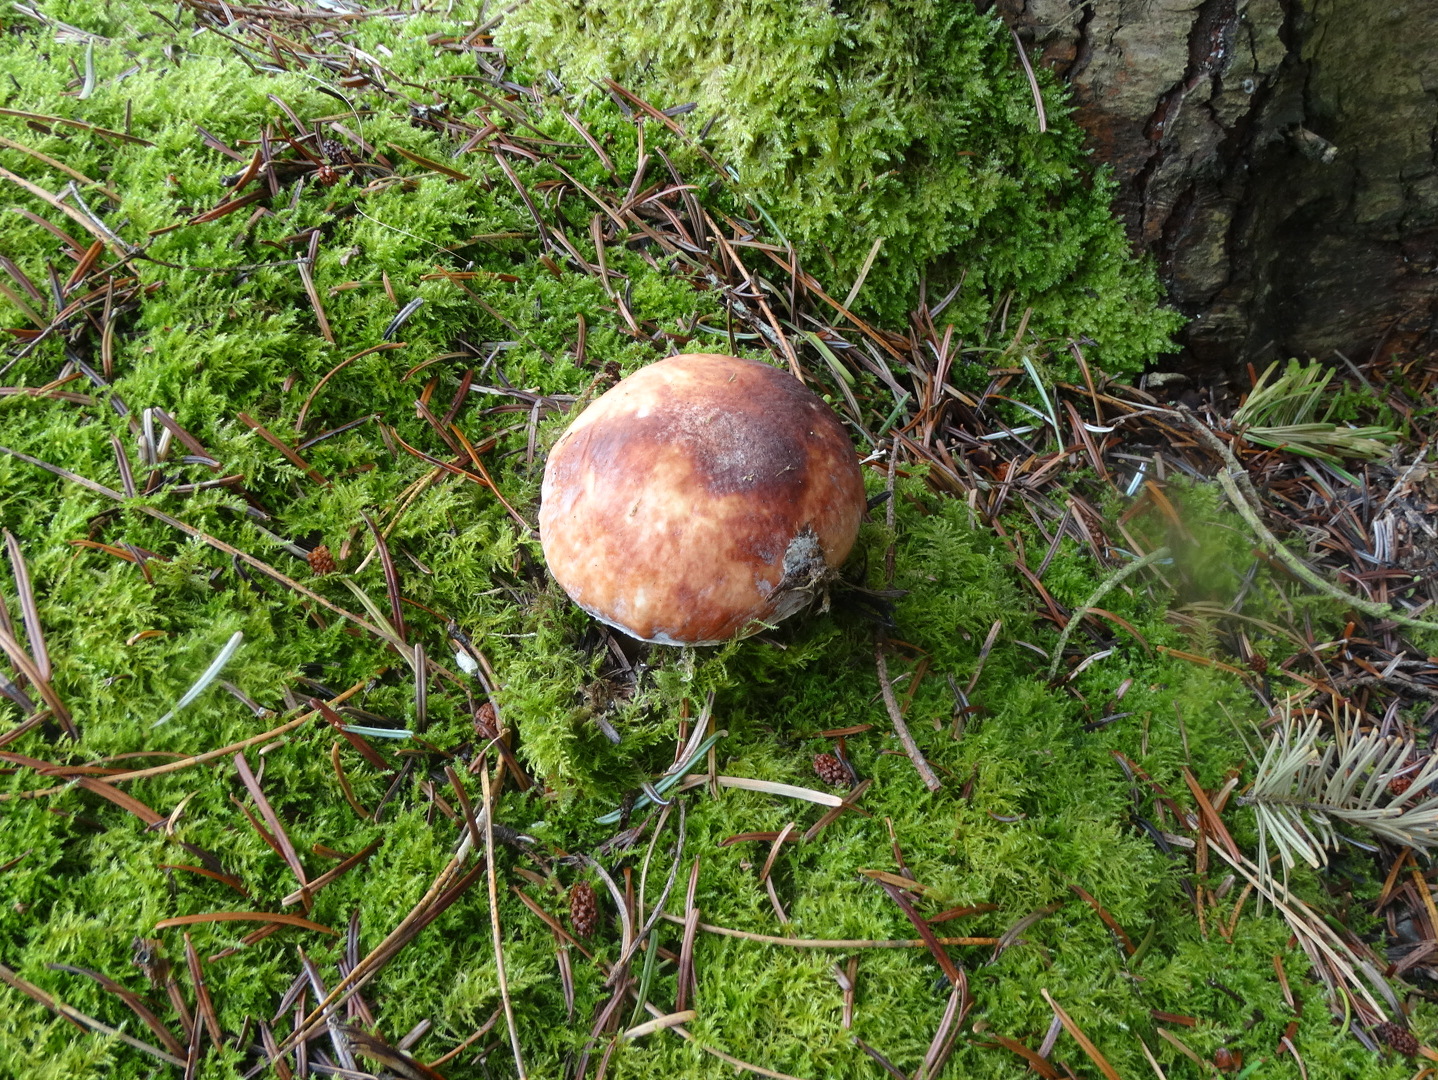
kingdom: Fungi
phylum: Basidiomycota
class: Agaricomycetes
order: Boletales
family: Boletaceae
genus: Boletus
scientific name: Boletus edulis
